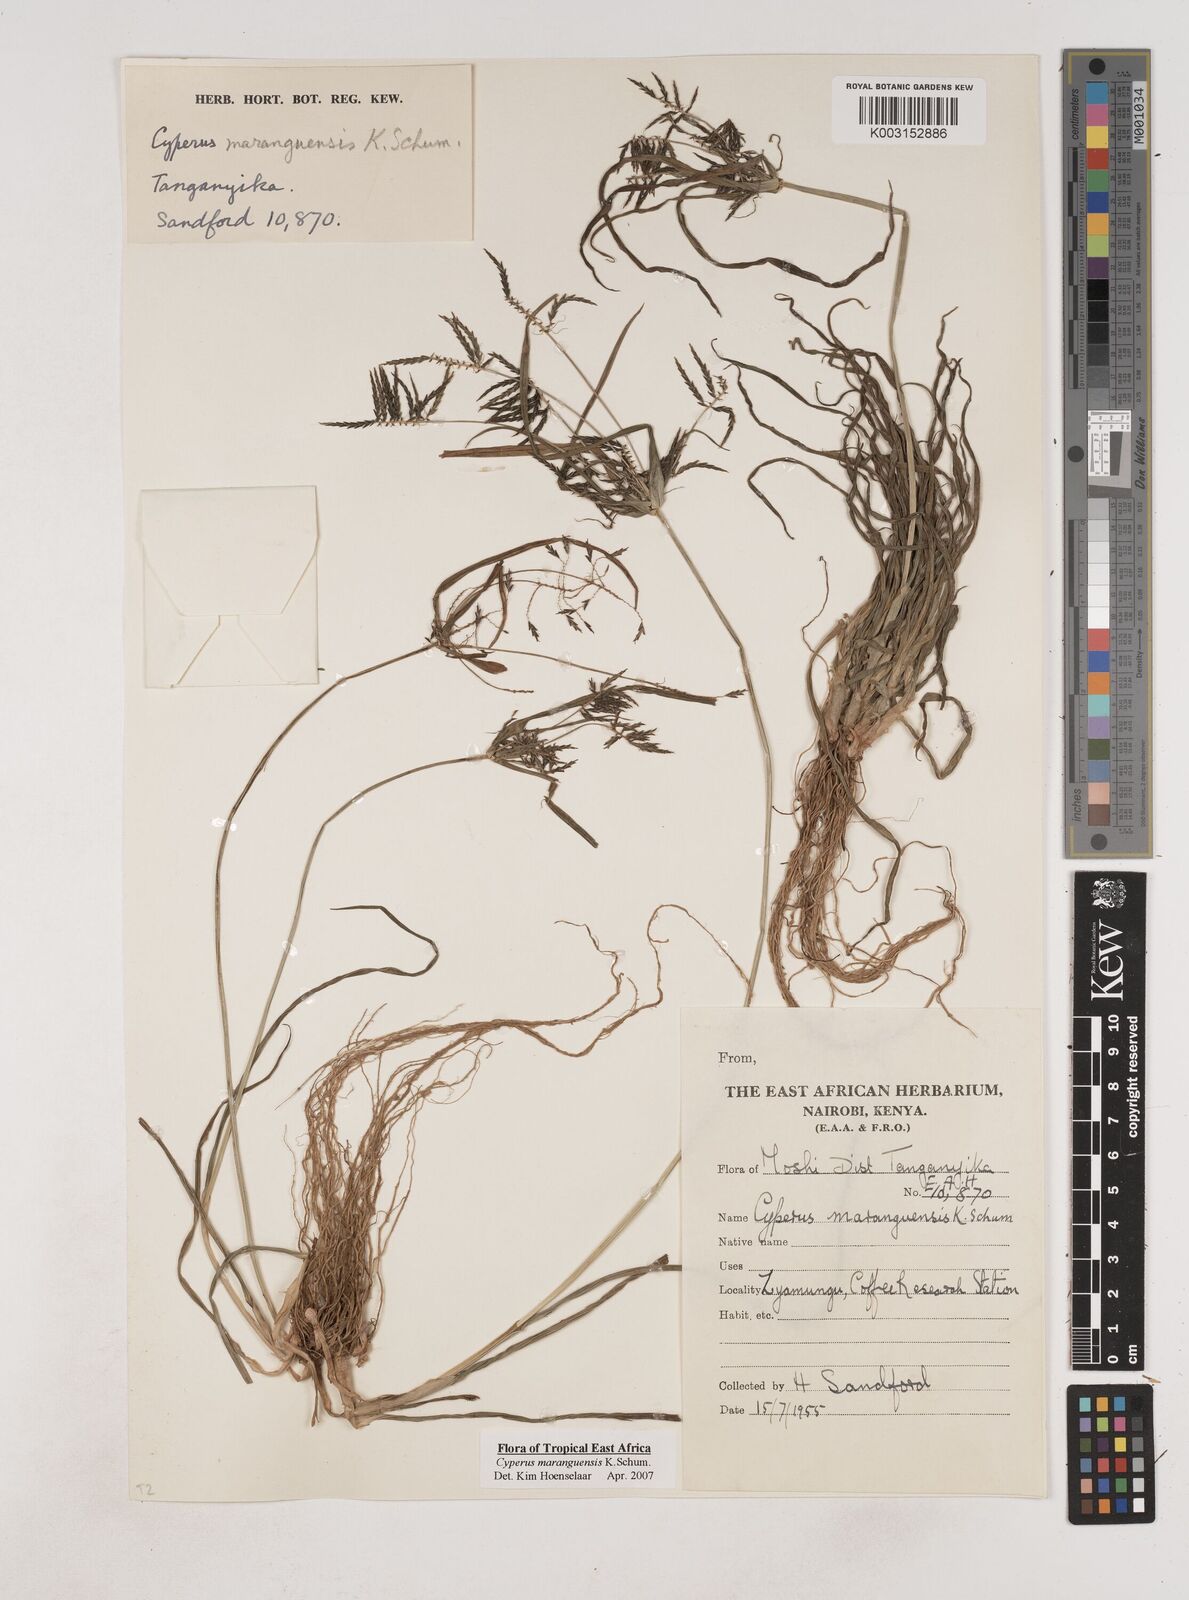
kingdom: Plantae
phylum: Tracheophyta
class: Liliopsida
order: Poales
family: Cyperaceae
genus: Cyperus
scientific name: Cyperus maranguensis
